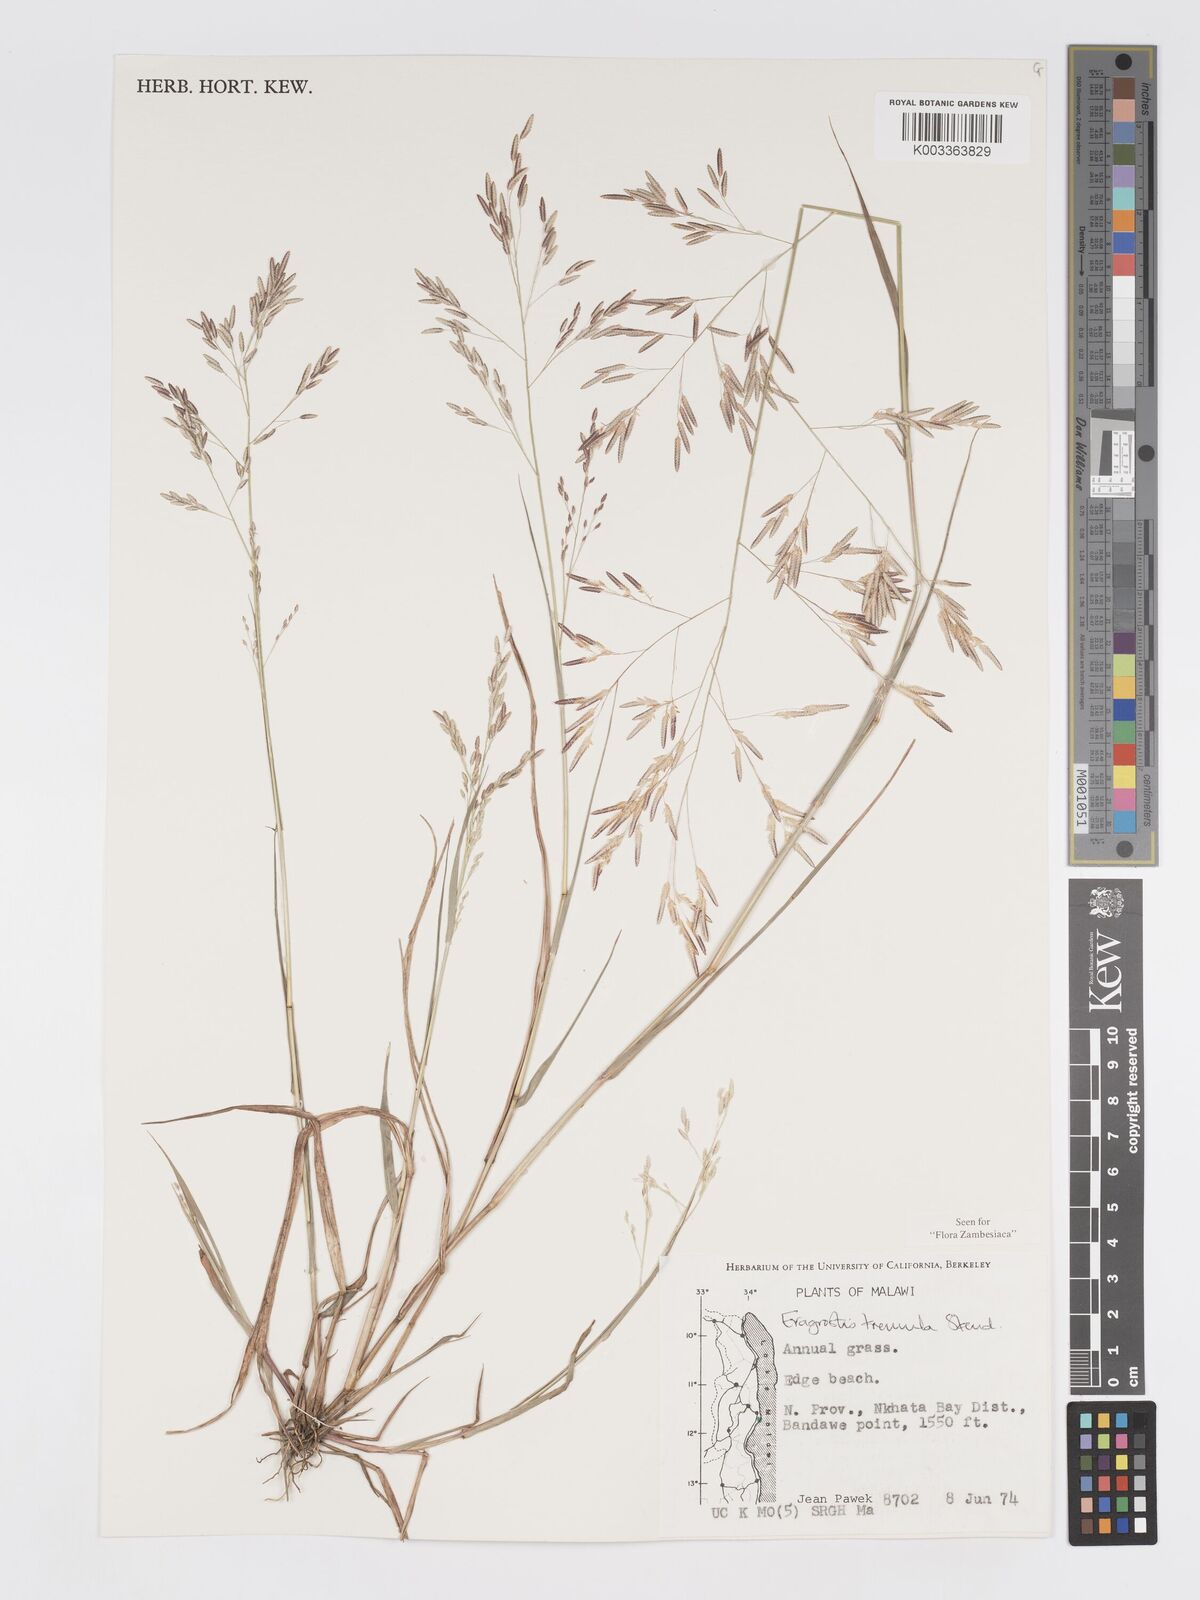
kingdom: Plantae
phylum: Tracheophyta
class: Liliopsida
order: Poales
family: Poaceae
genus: Eragrostis
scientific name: Eragrostis tremula
